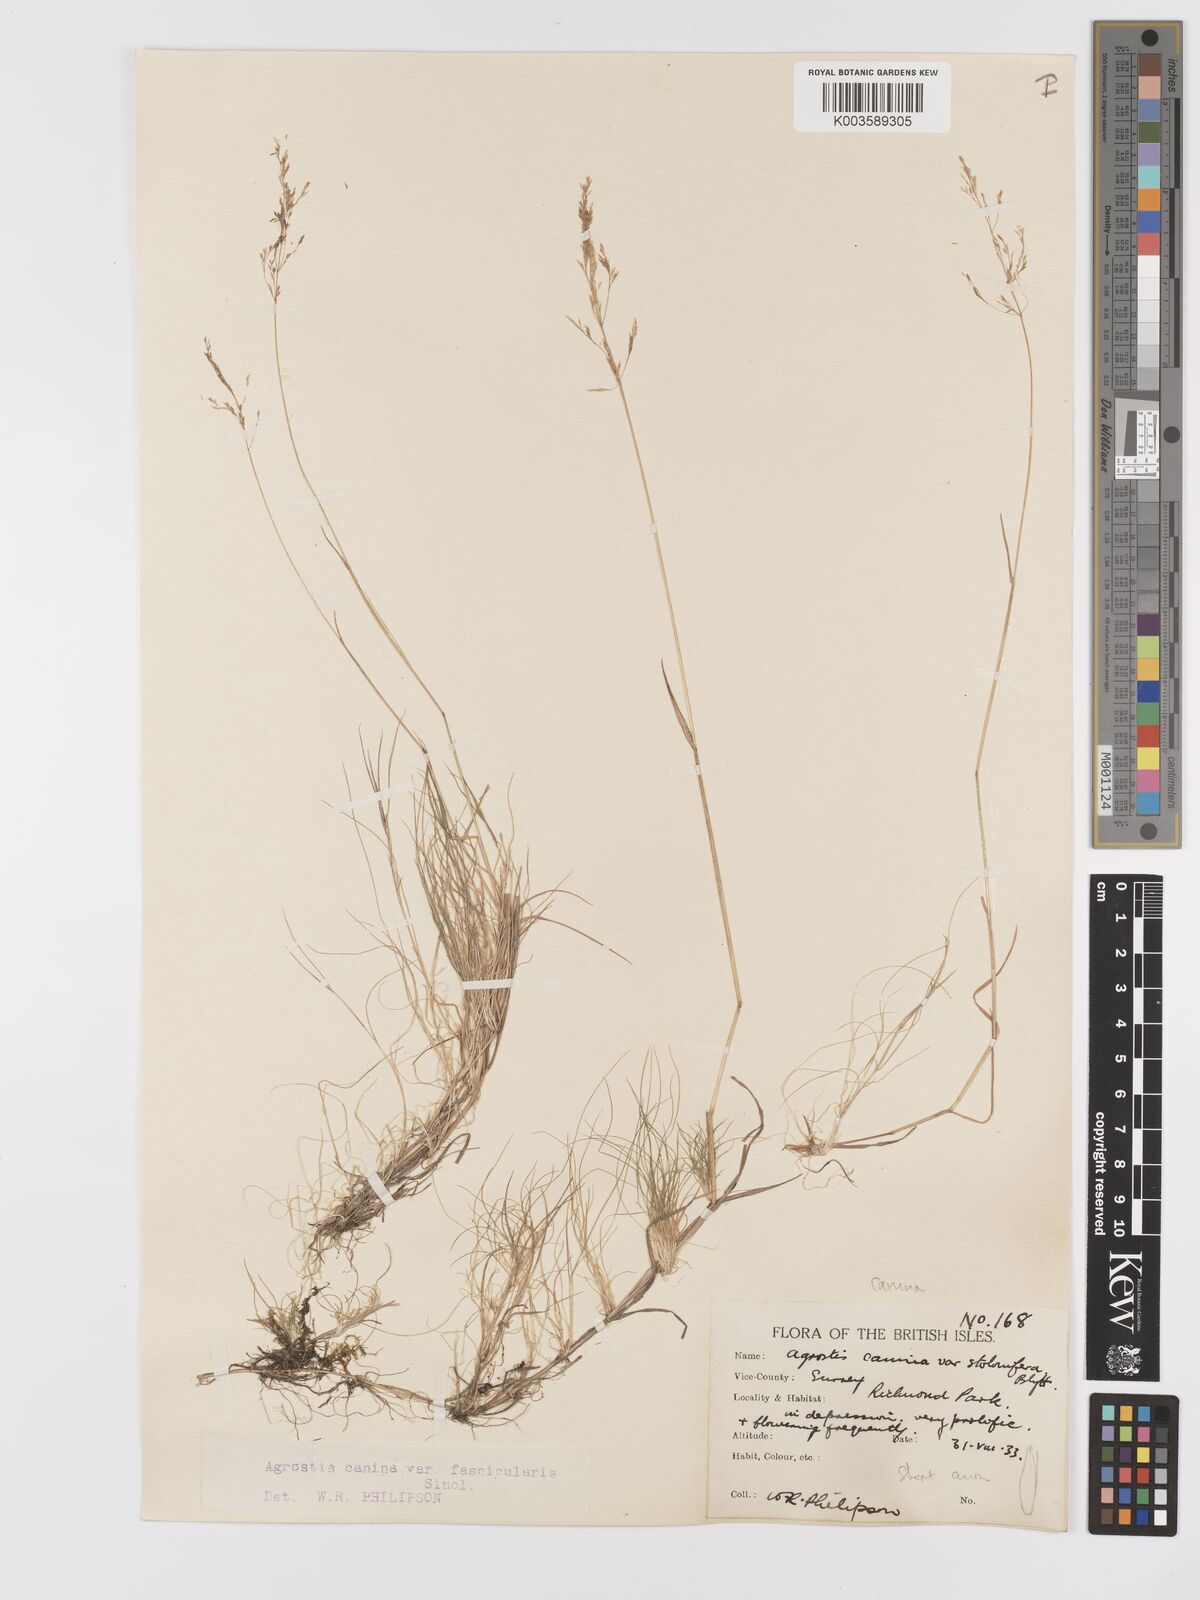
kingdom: Plantae
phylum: Tracheophyta
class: Liliopsida
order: Poales
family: Poaceae
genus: Agrostis
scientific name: Agrostis canina
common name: Velvet bent
